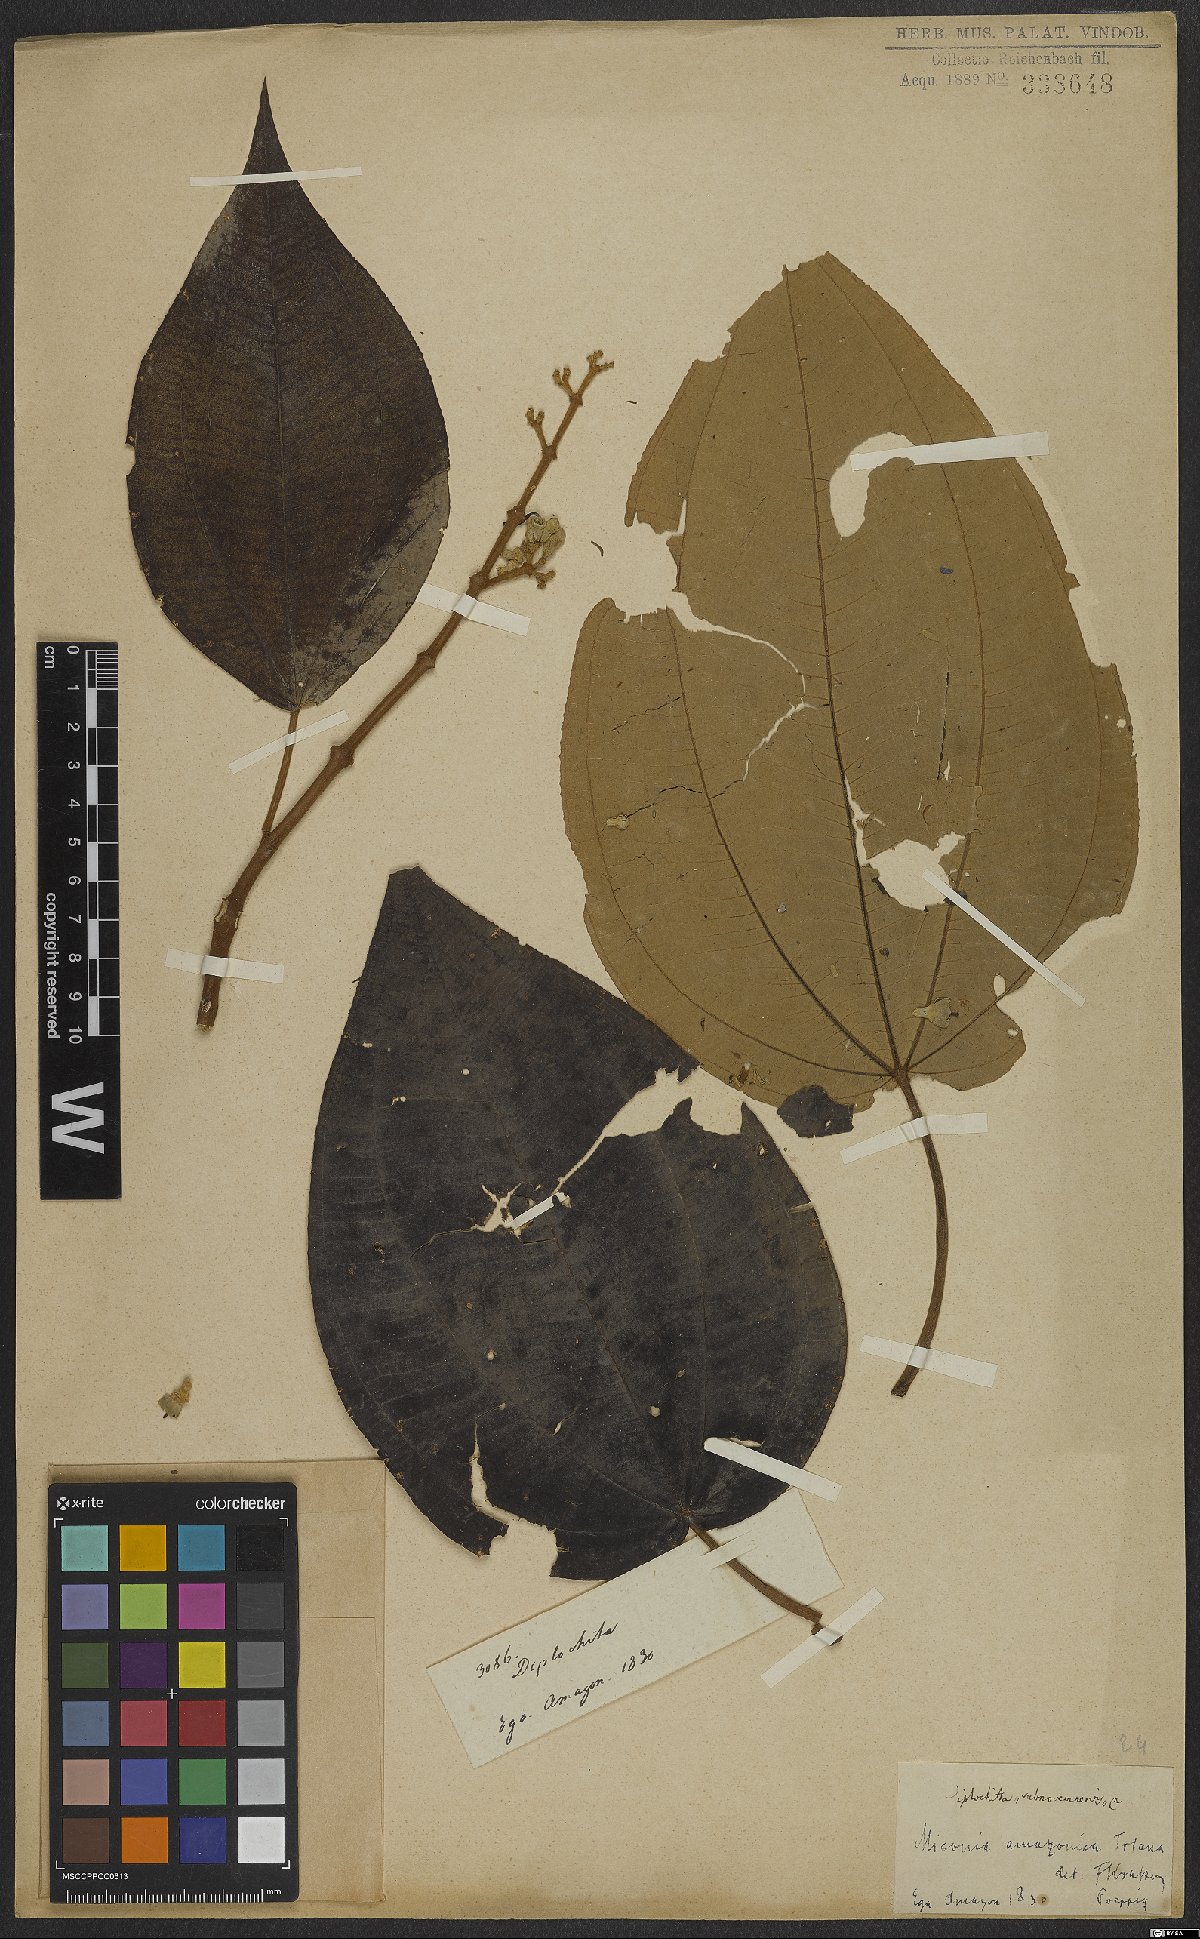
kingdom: Plantae
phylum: Tracheophyta
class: Magnoliopsida
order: Myrtales
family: Melastomataceae
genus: Miconia
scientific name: Miconia amazonica
